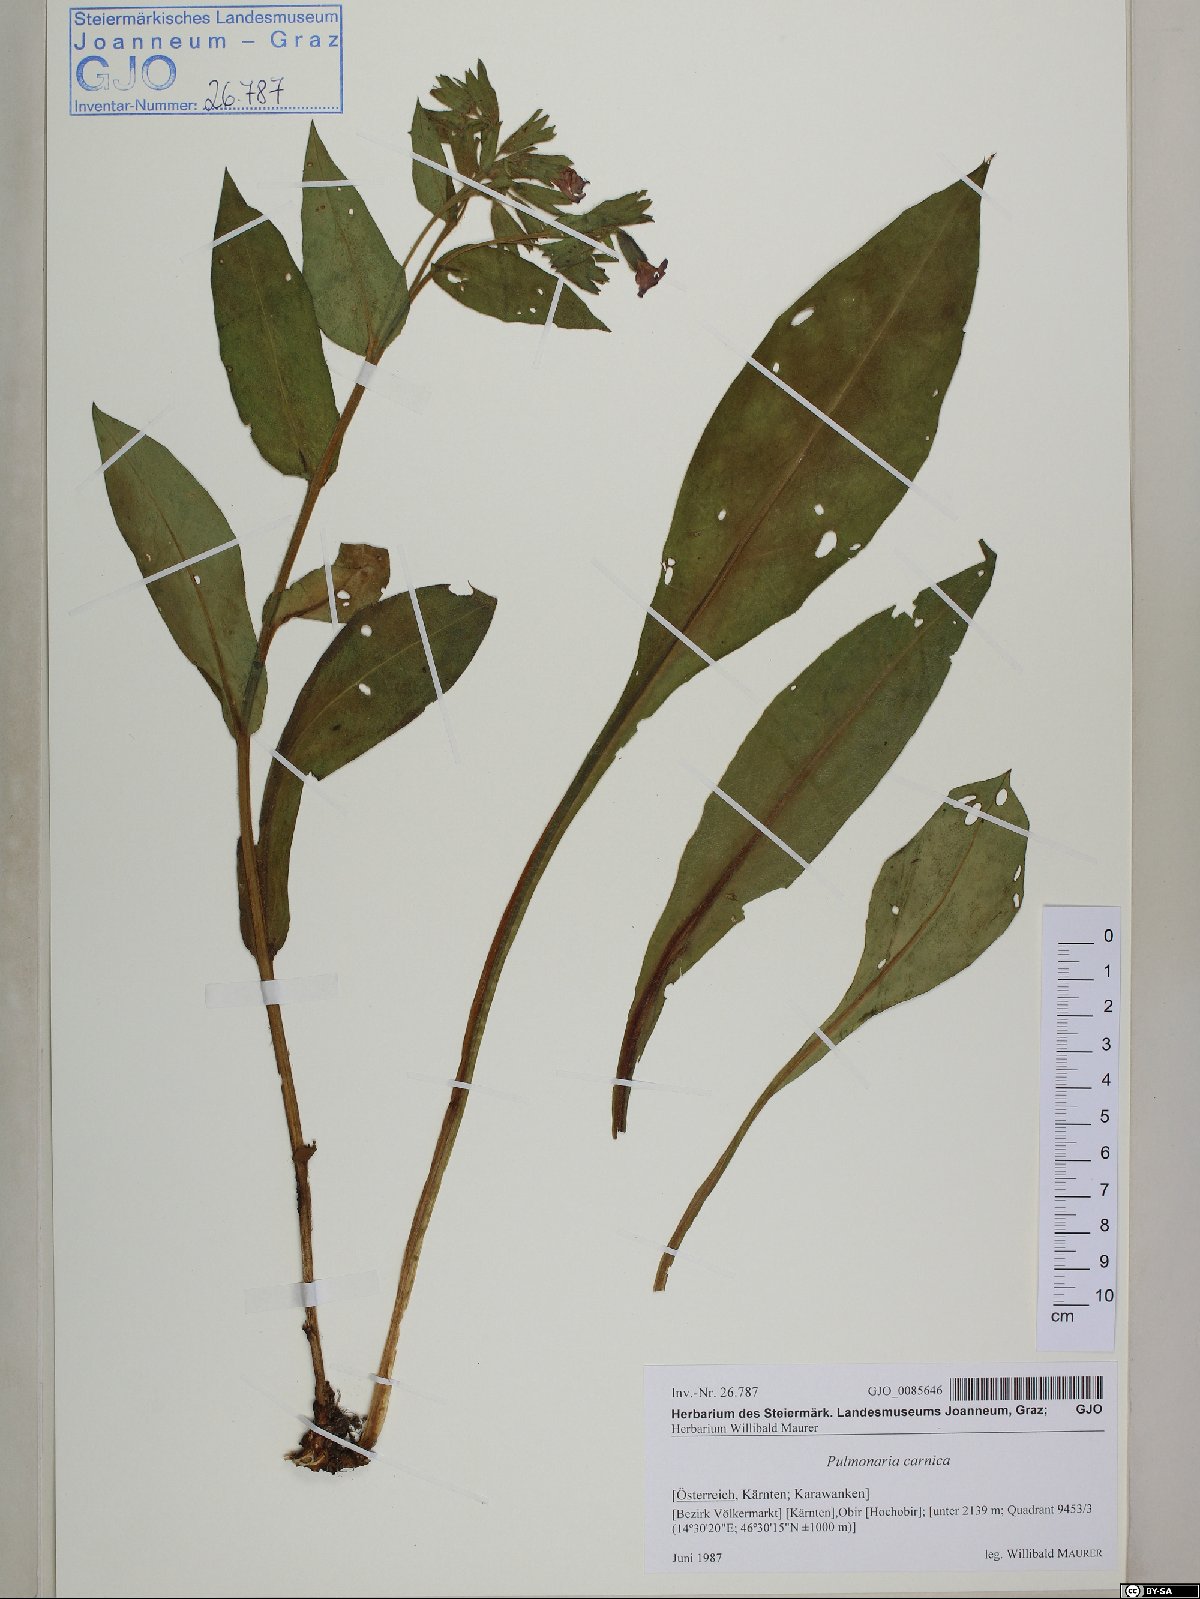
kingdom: Plantae
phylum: Tracheophyta
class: Magnoliopsida
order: Boraginales
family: Boraginaceae
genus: Pulmonaria
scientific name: Pulmonaria carnica
